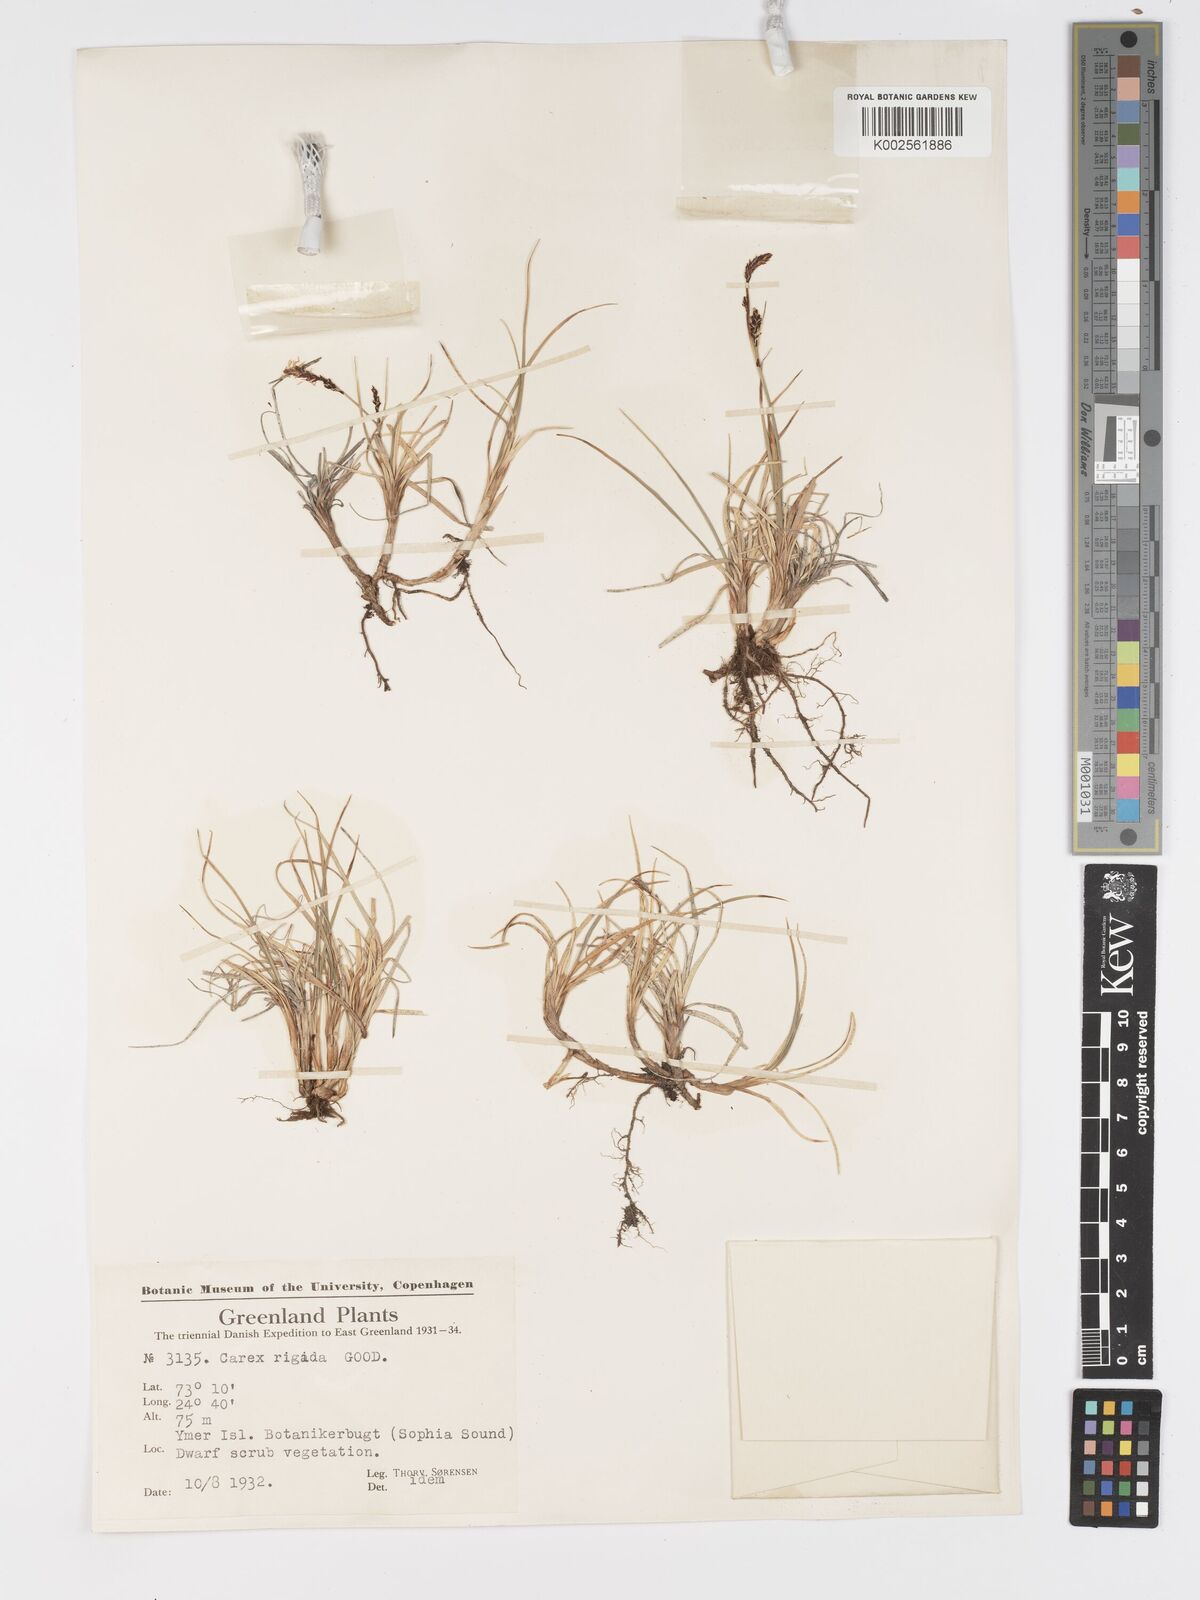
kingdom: Plantae
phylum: Tracheophyta
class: Liliopsida
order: Poales
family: Cyperaceae
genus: Carex
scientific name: Carex bigelowii
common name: Stiff sedge
